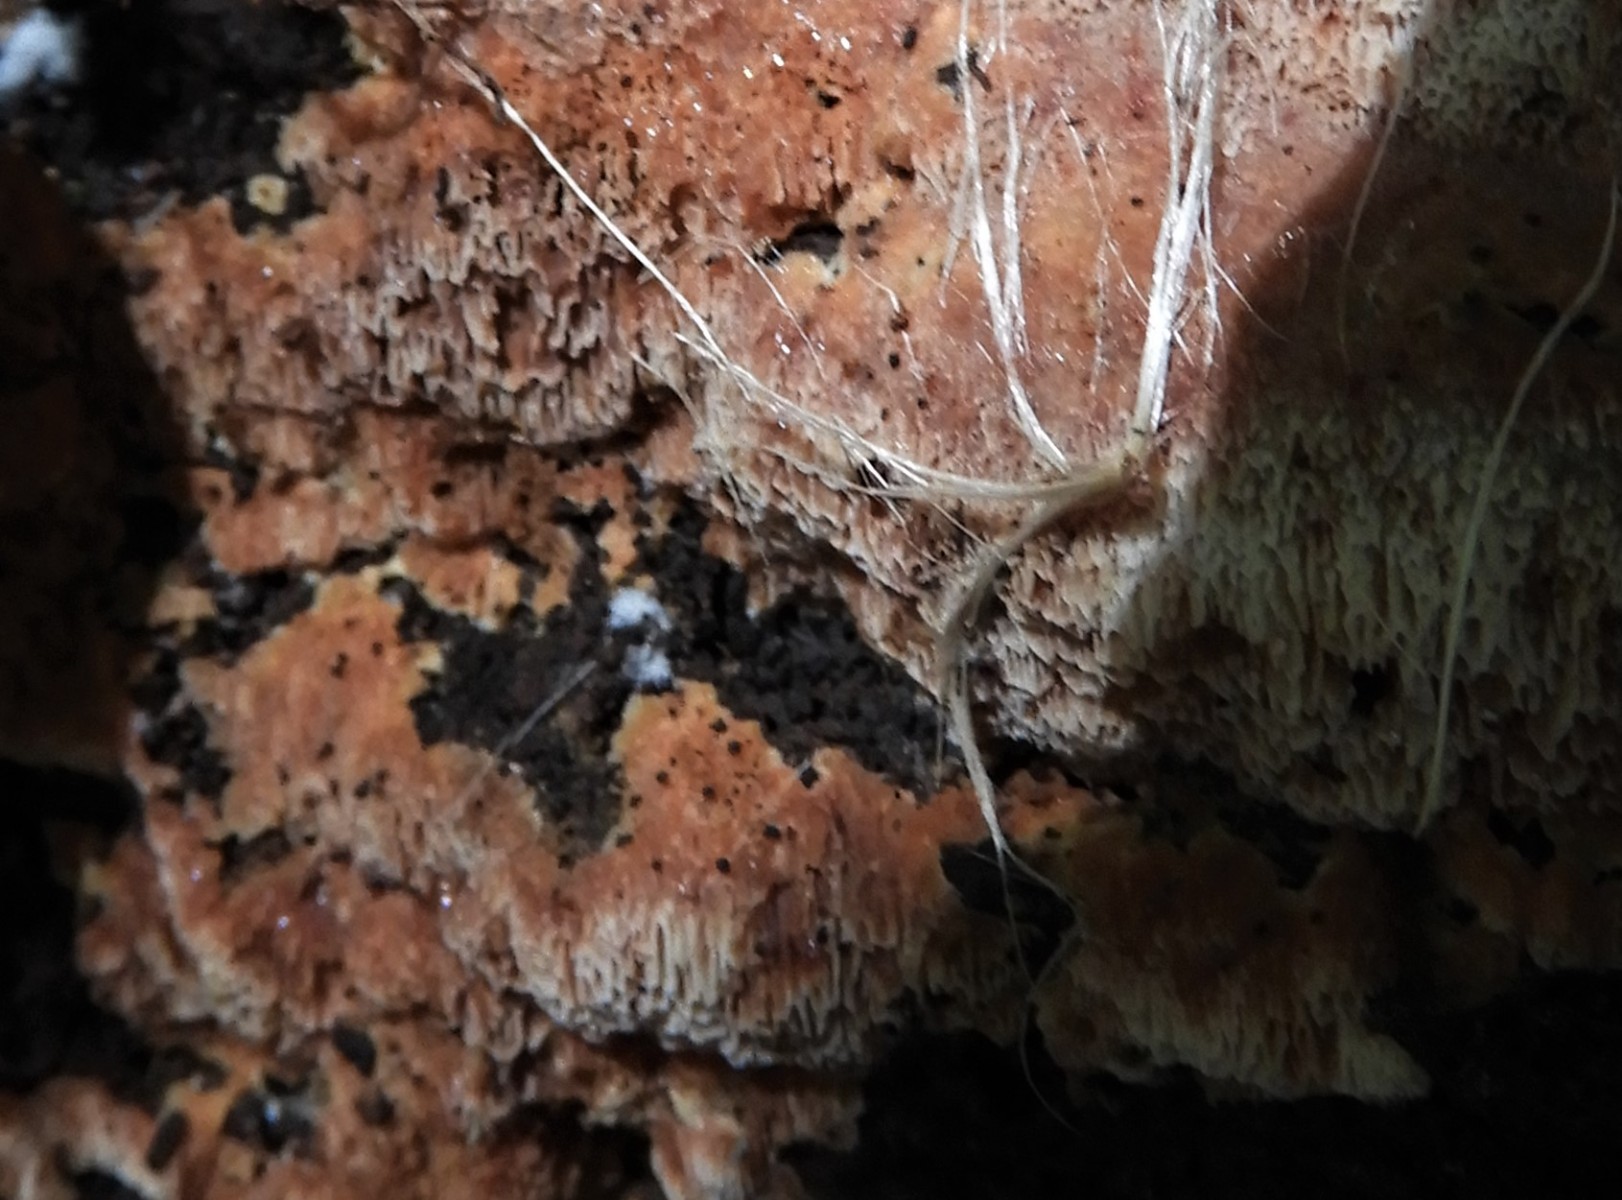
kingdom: Fungi
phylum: Basidiomycota
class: Agaricomycetes
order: Polyporales
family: Meruliaceae
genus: Physisporinus
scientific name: Physisporinus
